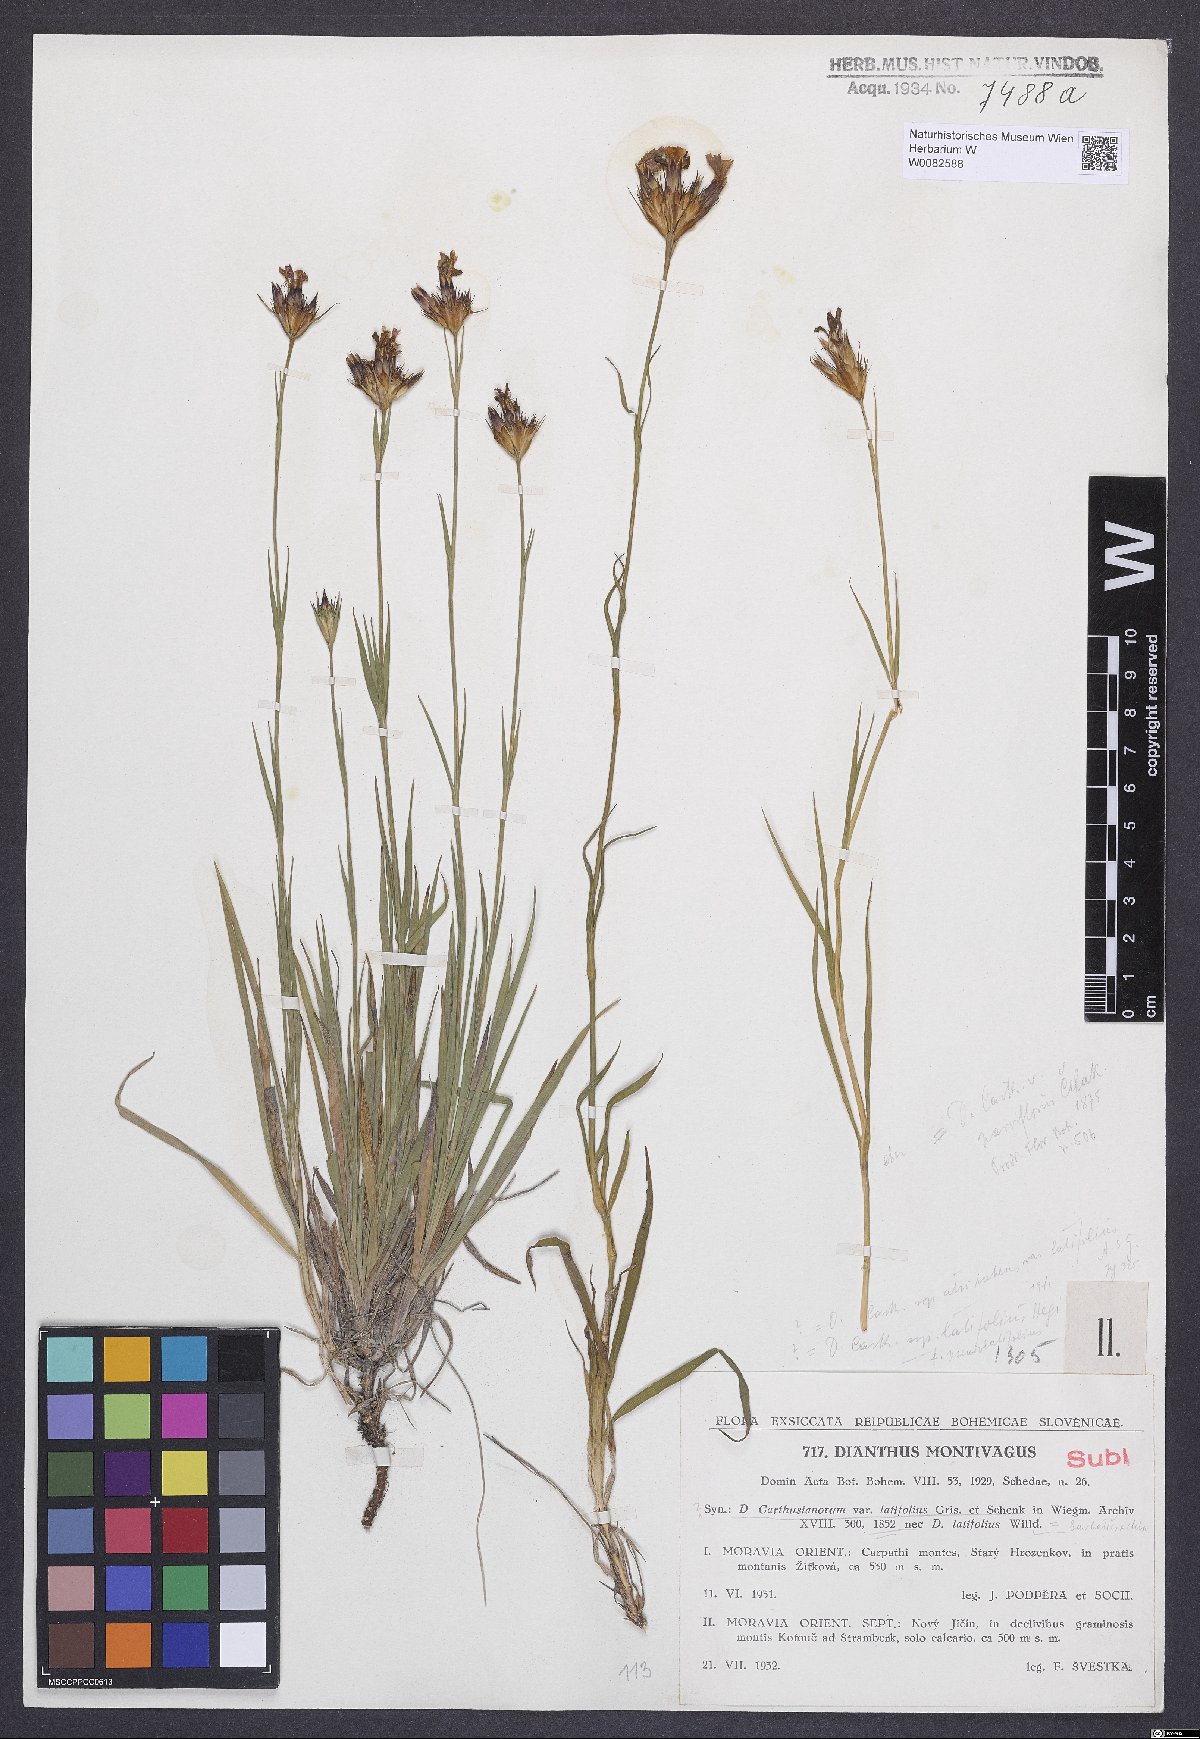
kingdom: Plantae
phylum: Tracheophyta
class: Magnoliopsida
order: Caryophyllales
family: Caryophyllaceae
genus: Dianthus
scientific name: Dianthus carthusianorum
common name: Carthusian pink
